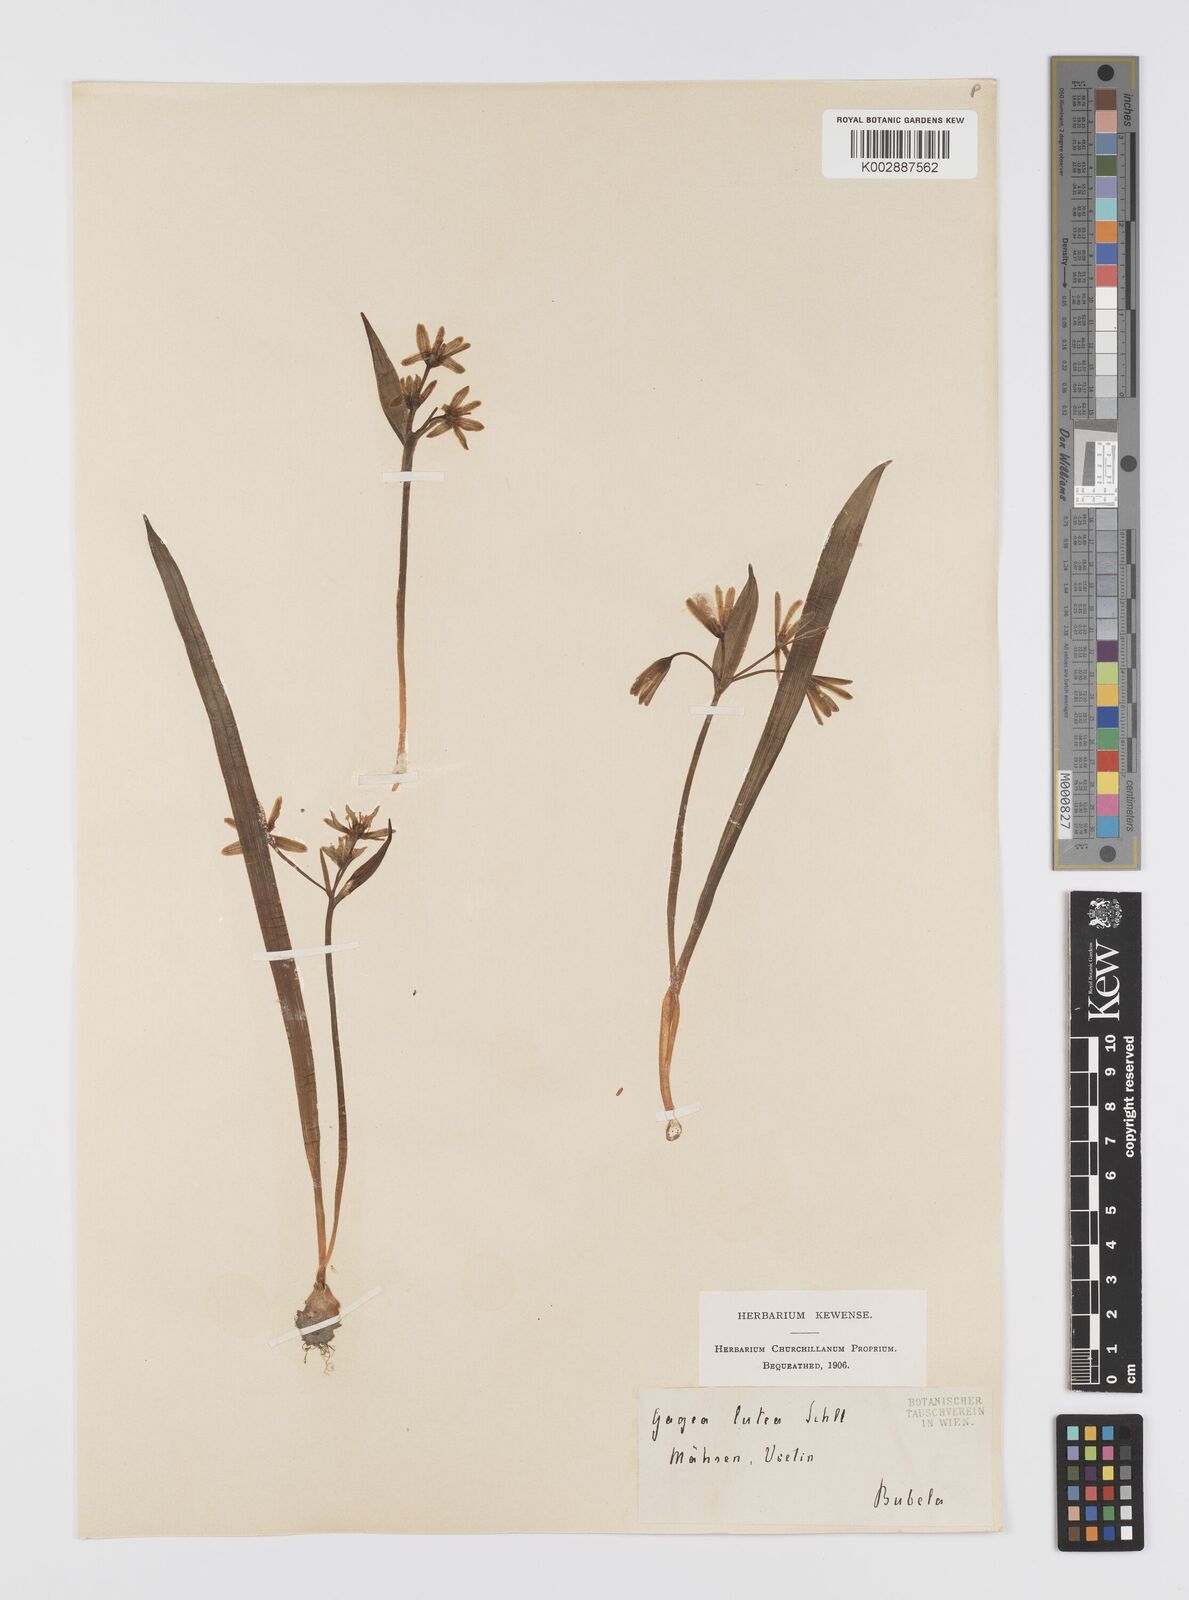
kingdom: Plantae
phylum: Tracheophyta
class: Liliopsida
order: Liliales
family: Liliaceae
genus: Gagea
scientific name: Gagea lutea
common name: Yellow star-of-bethlehem
